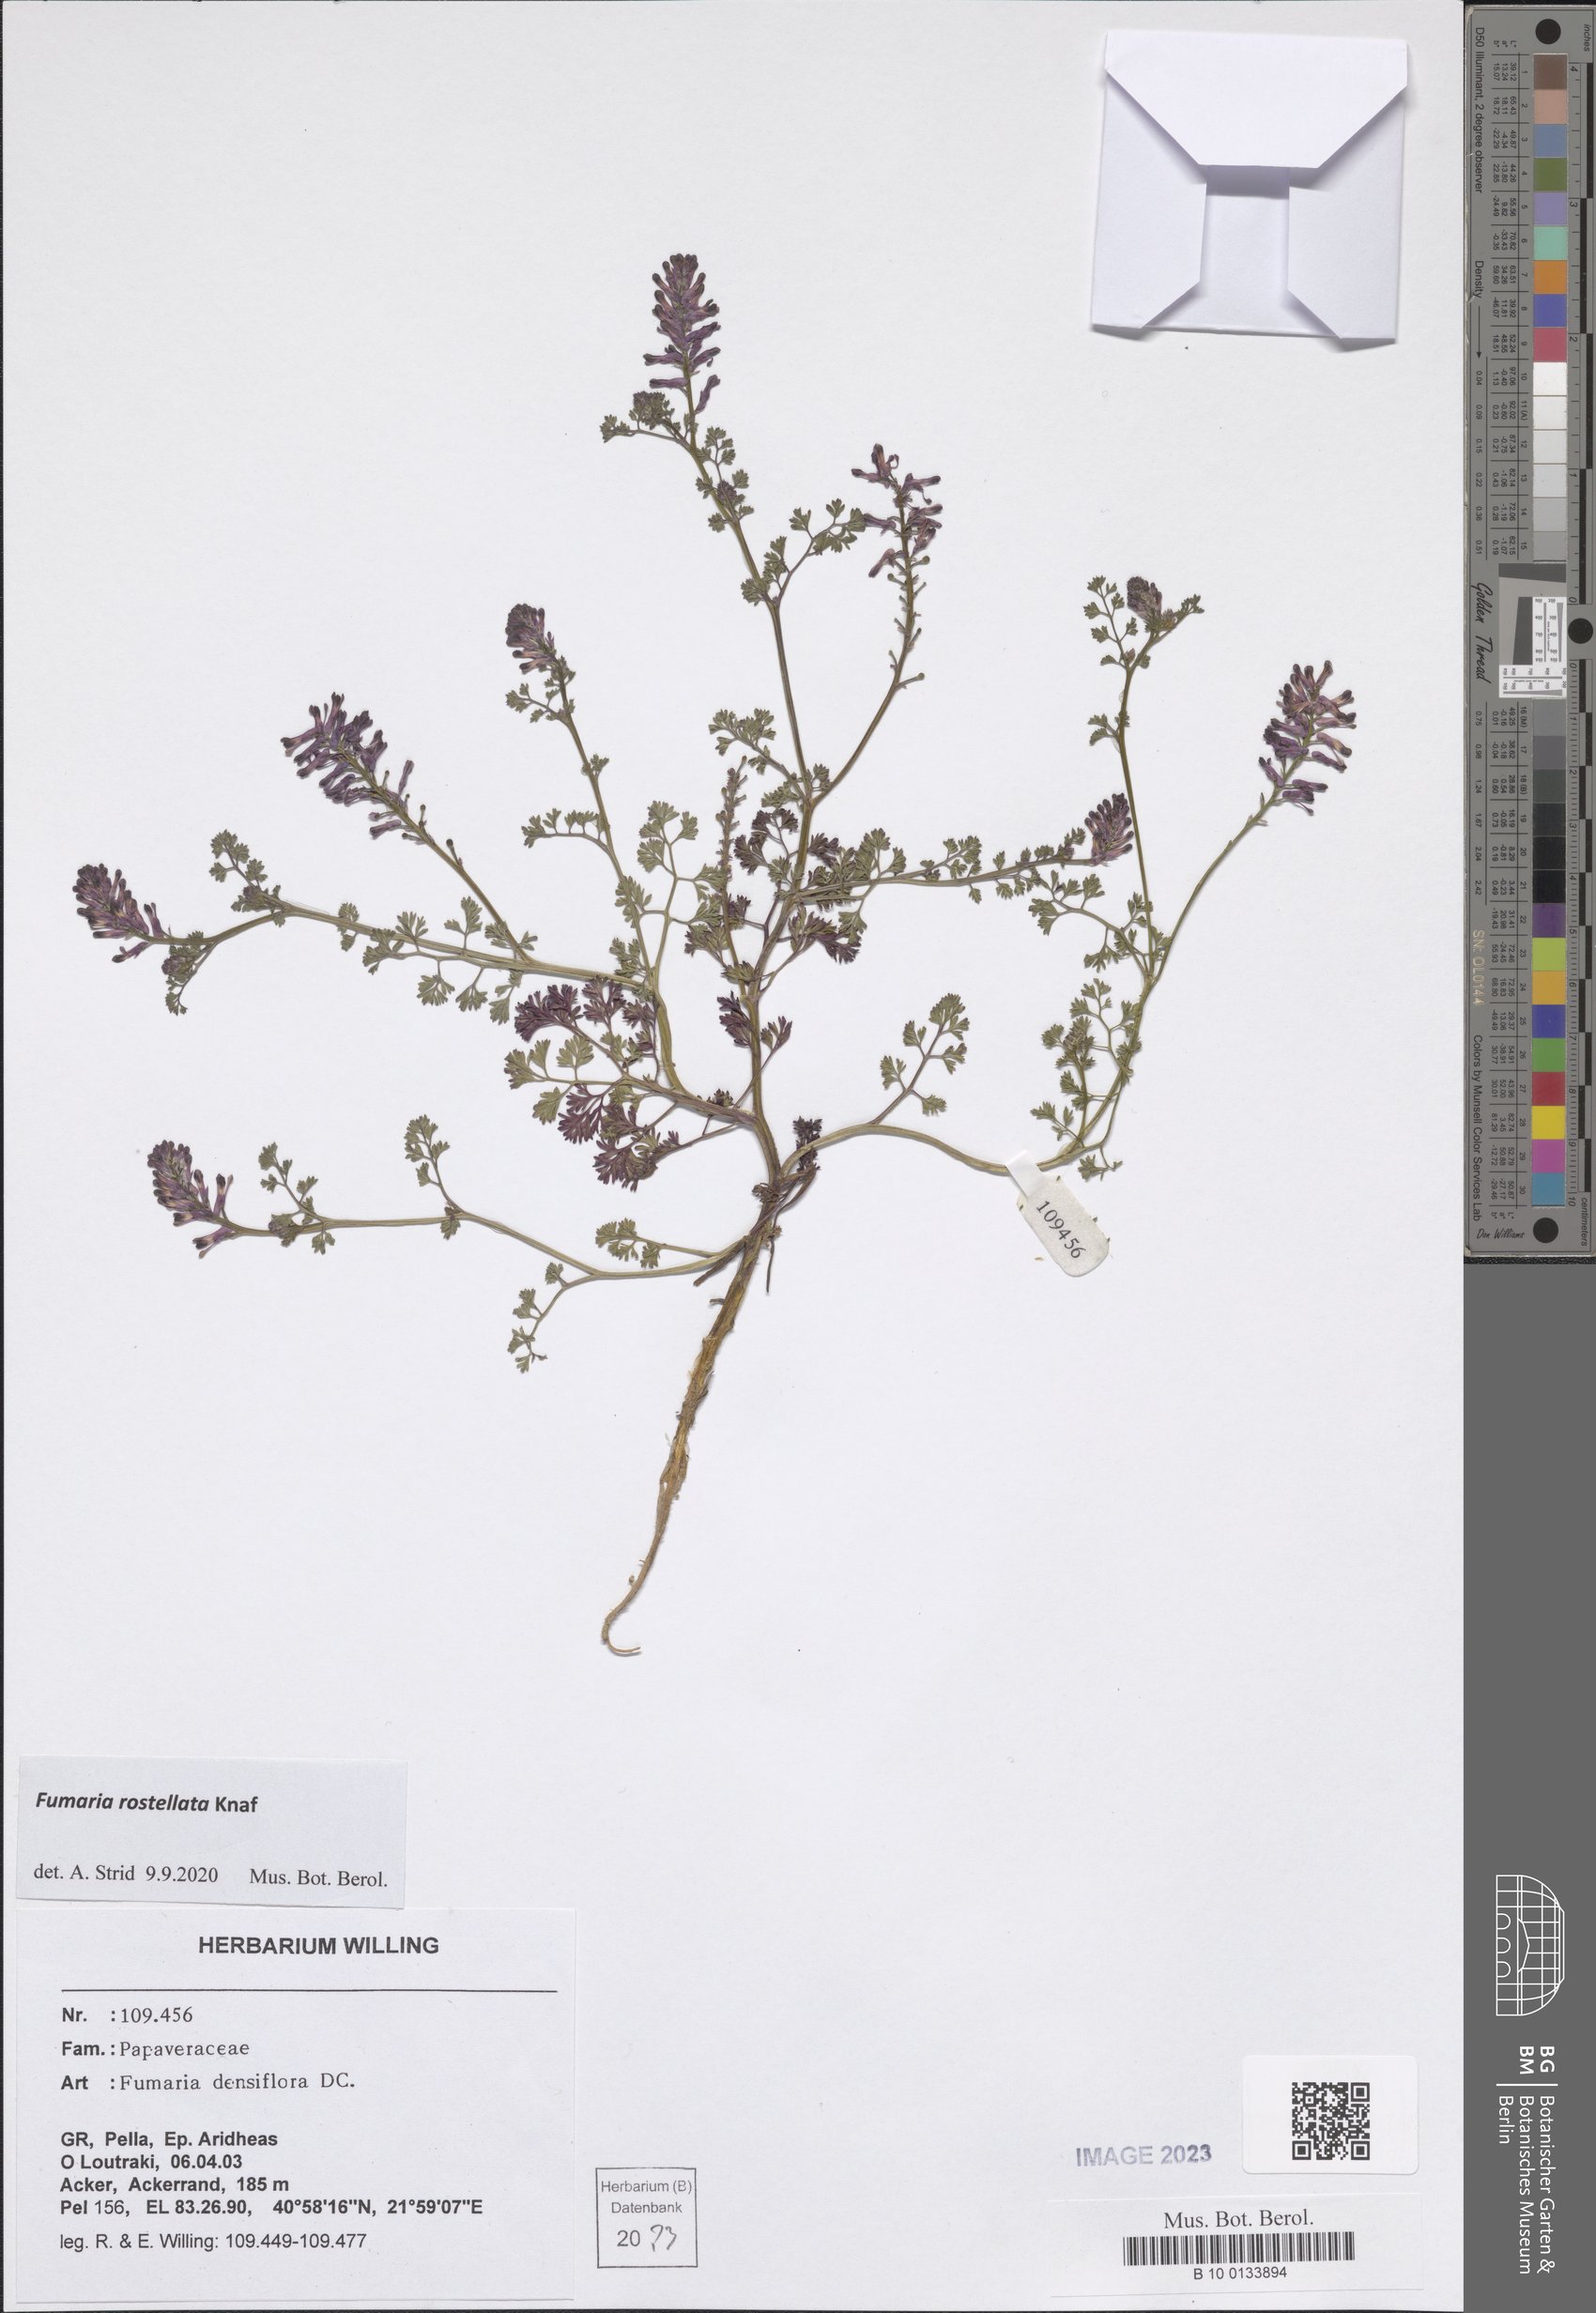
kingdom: Plantae
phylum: Tracheophyta
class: Magnoliopsida
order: Ranunculales
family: Papaveraceae
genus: Fumaria
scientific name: Fumaria rostellata
